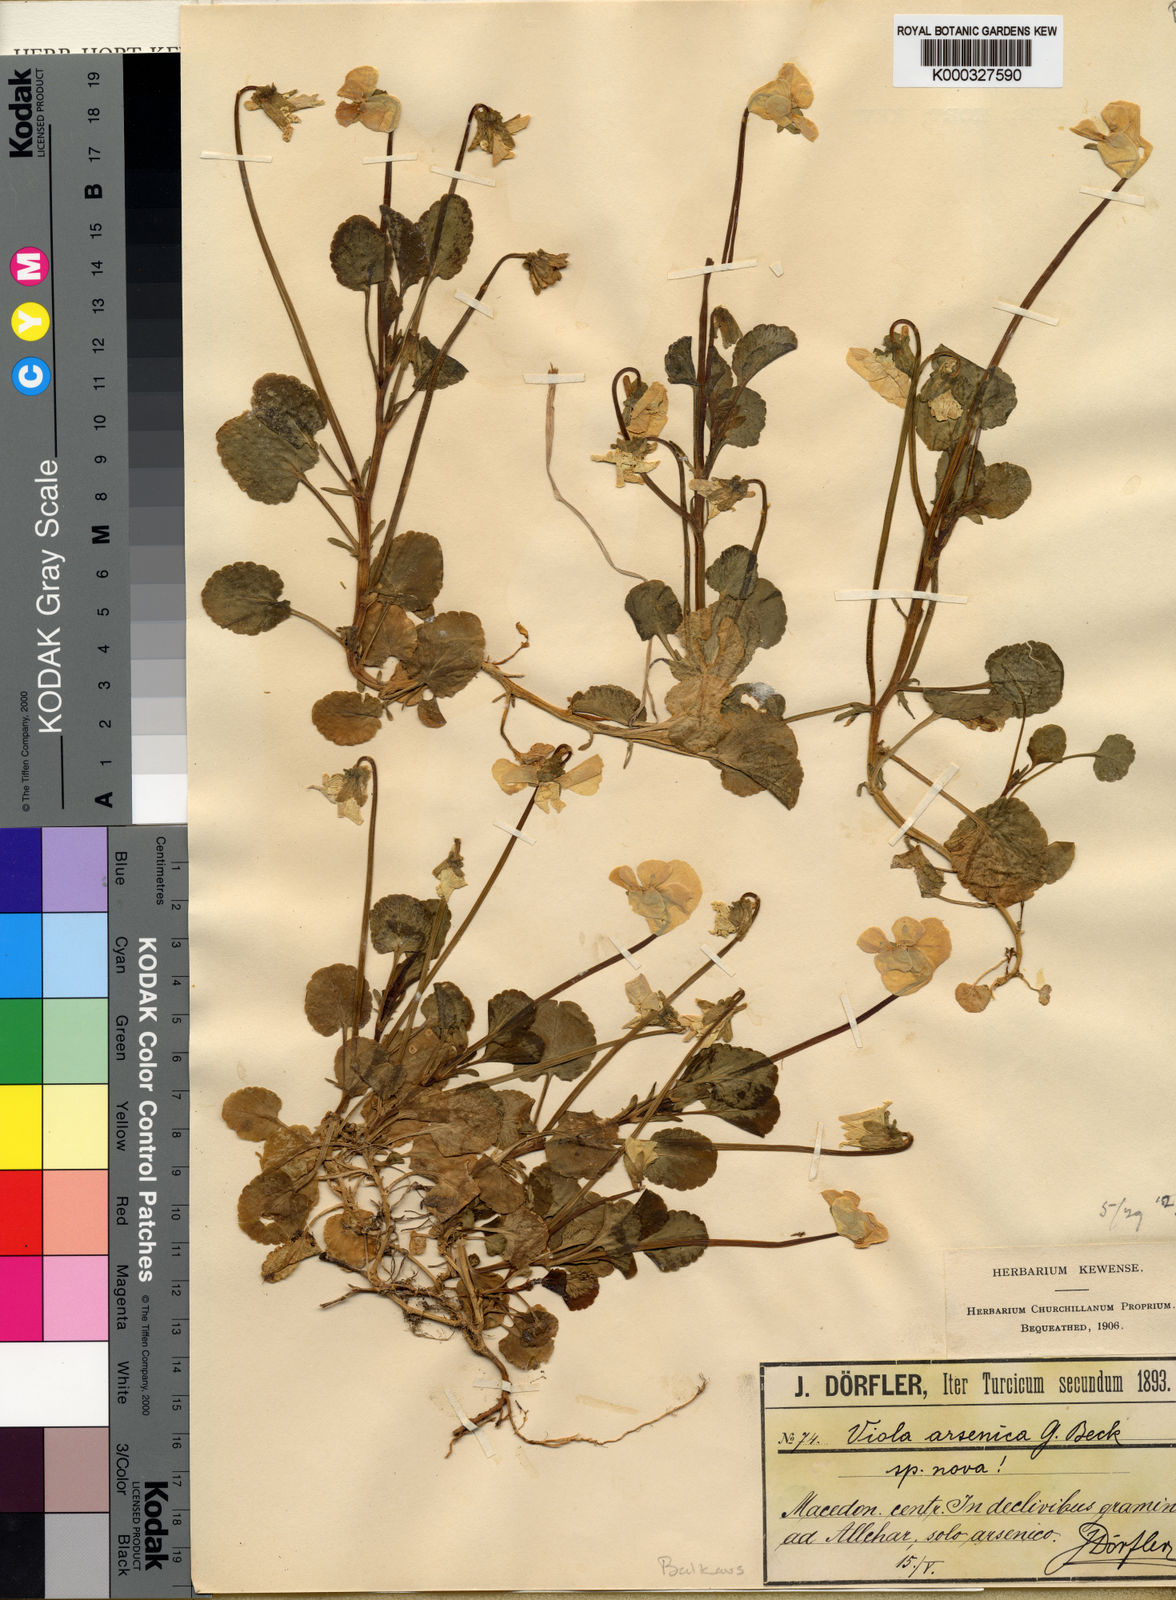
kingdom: Plantae
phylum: Tracheophyta
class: Magnoliopsida
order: Malpighiales
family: Violaceae
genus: Viola
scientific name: Viola arsenica
